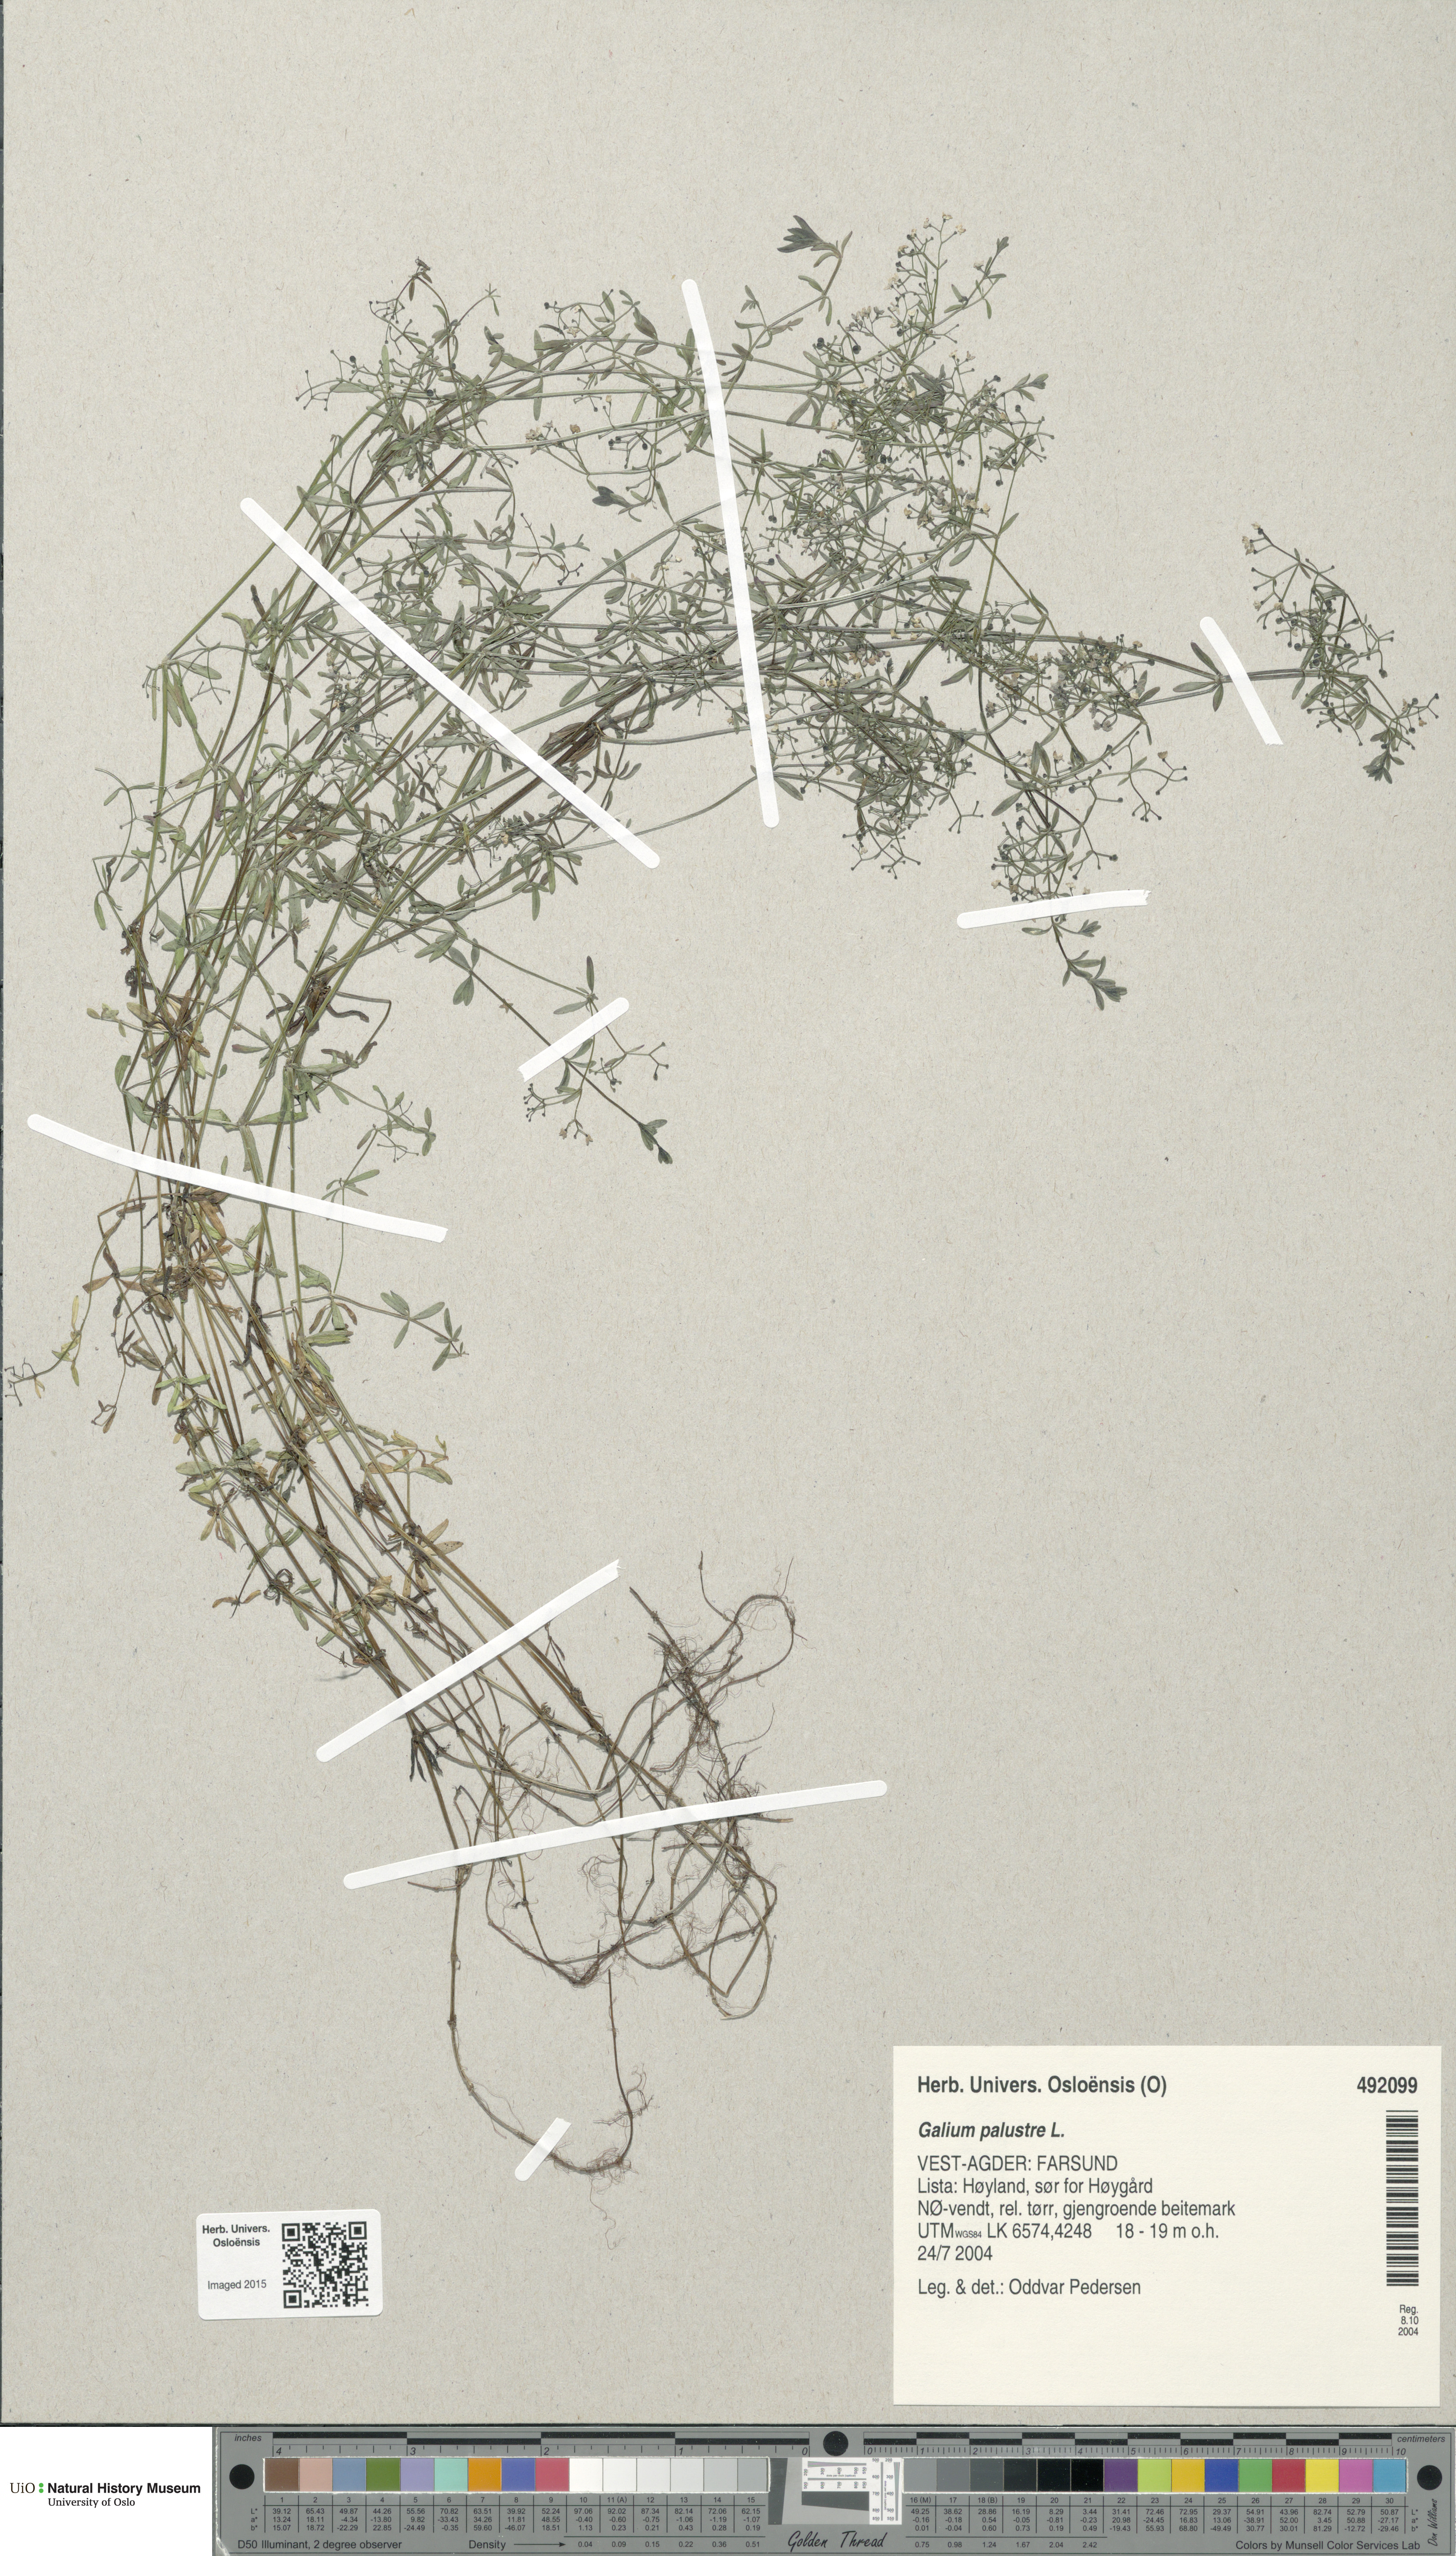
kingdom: Plantae
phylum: Tracheophyta
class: Magnoliopsida
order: Gentianales
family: Rubiaceae
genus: Galium
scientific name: Galium palustre
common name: Common marsh-bedstraw
